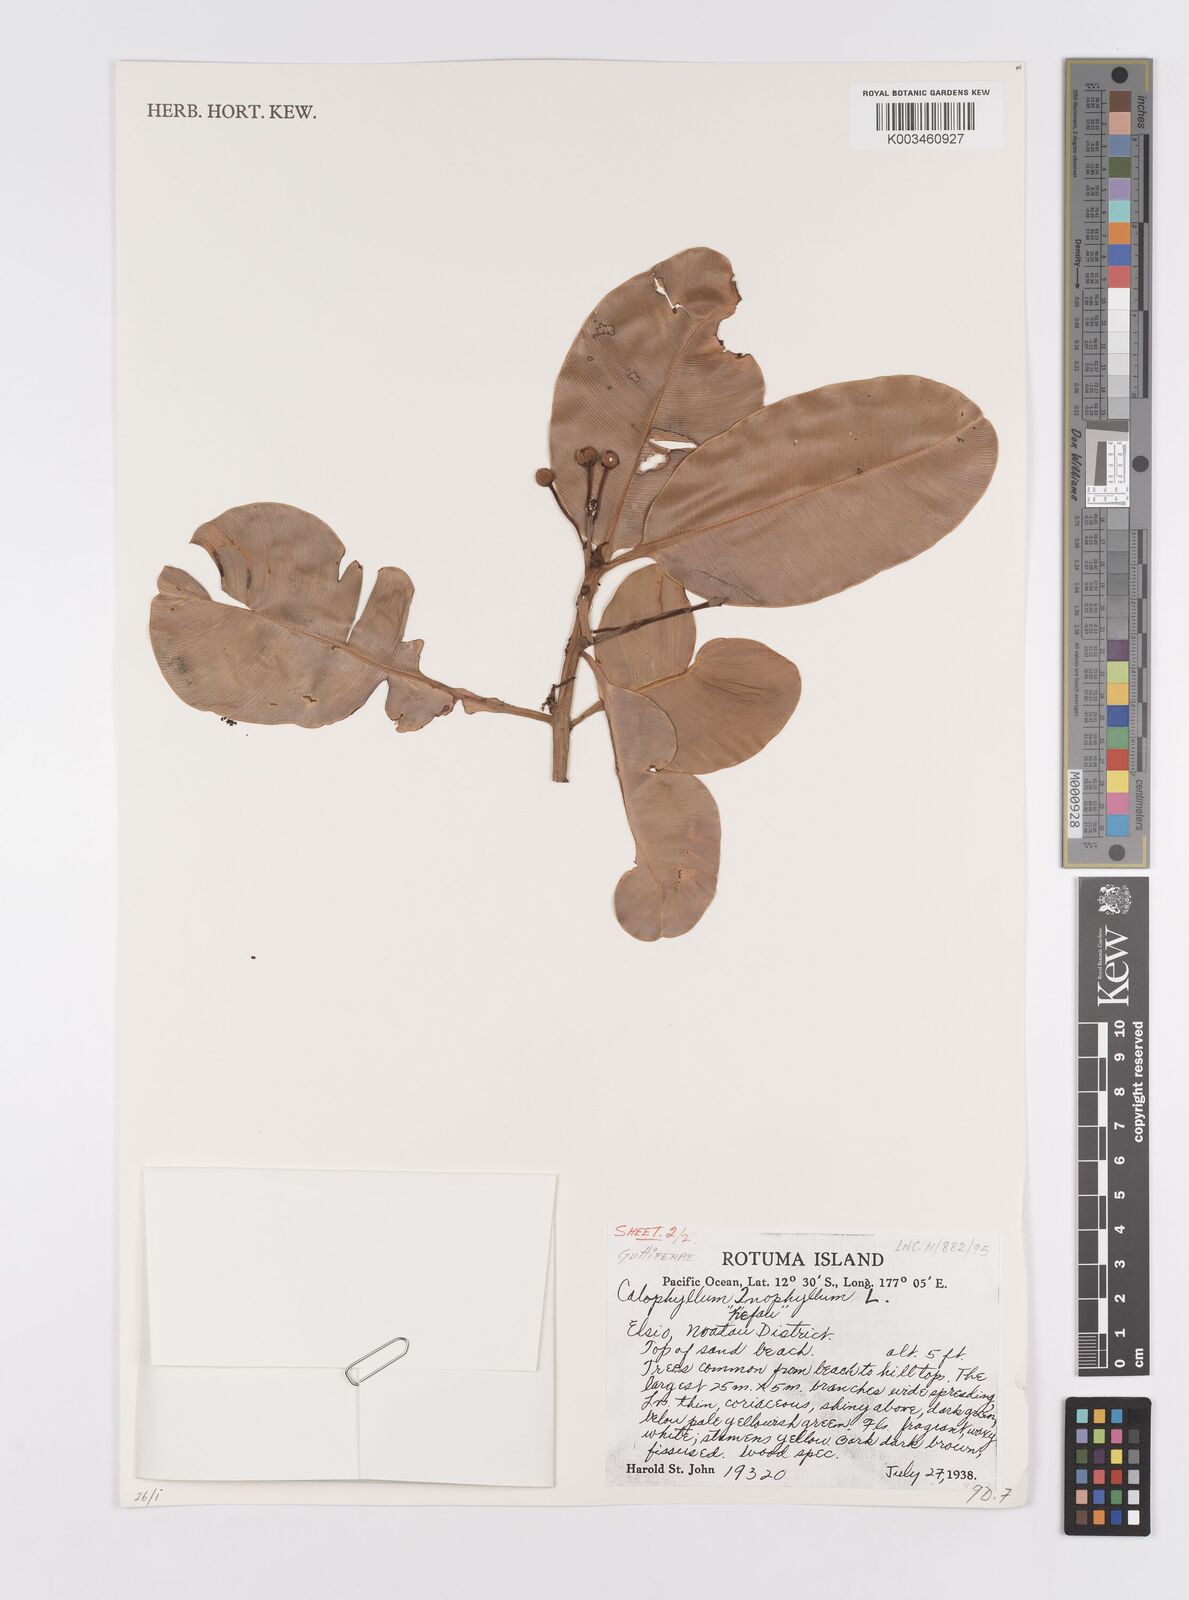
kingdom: Plantae
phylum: Tracheophyta
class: Magnoliopsida
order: Malpighiales
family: Calophyllaceae
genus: Calophyllum
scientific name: Calophyllum inophyllum
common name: Alexandrian laurel
